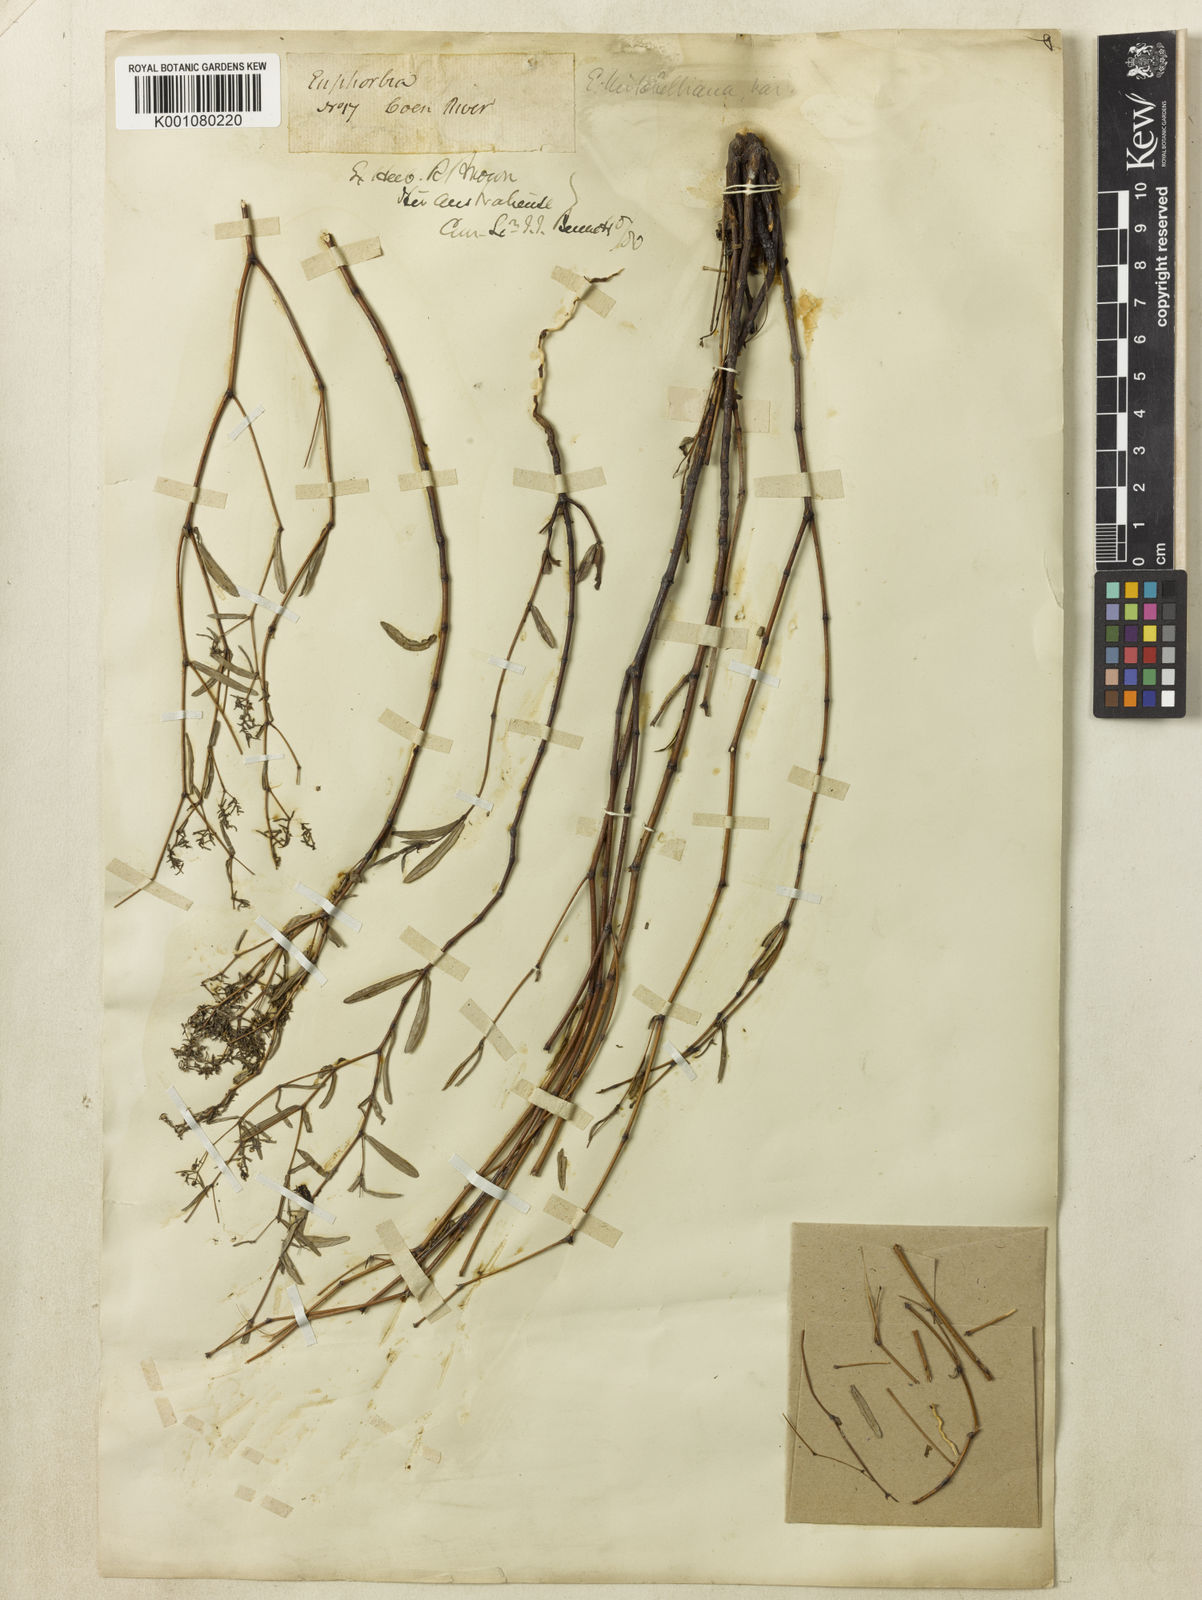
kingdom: Plantae
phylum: Tracheophyta
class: Magnoliopsida
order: Malpighiales
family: Euphorbiaceae
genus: Euphorbia
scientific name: Euphorbia mitchelliana
